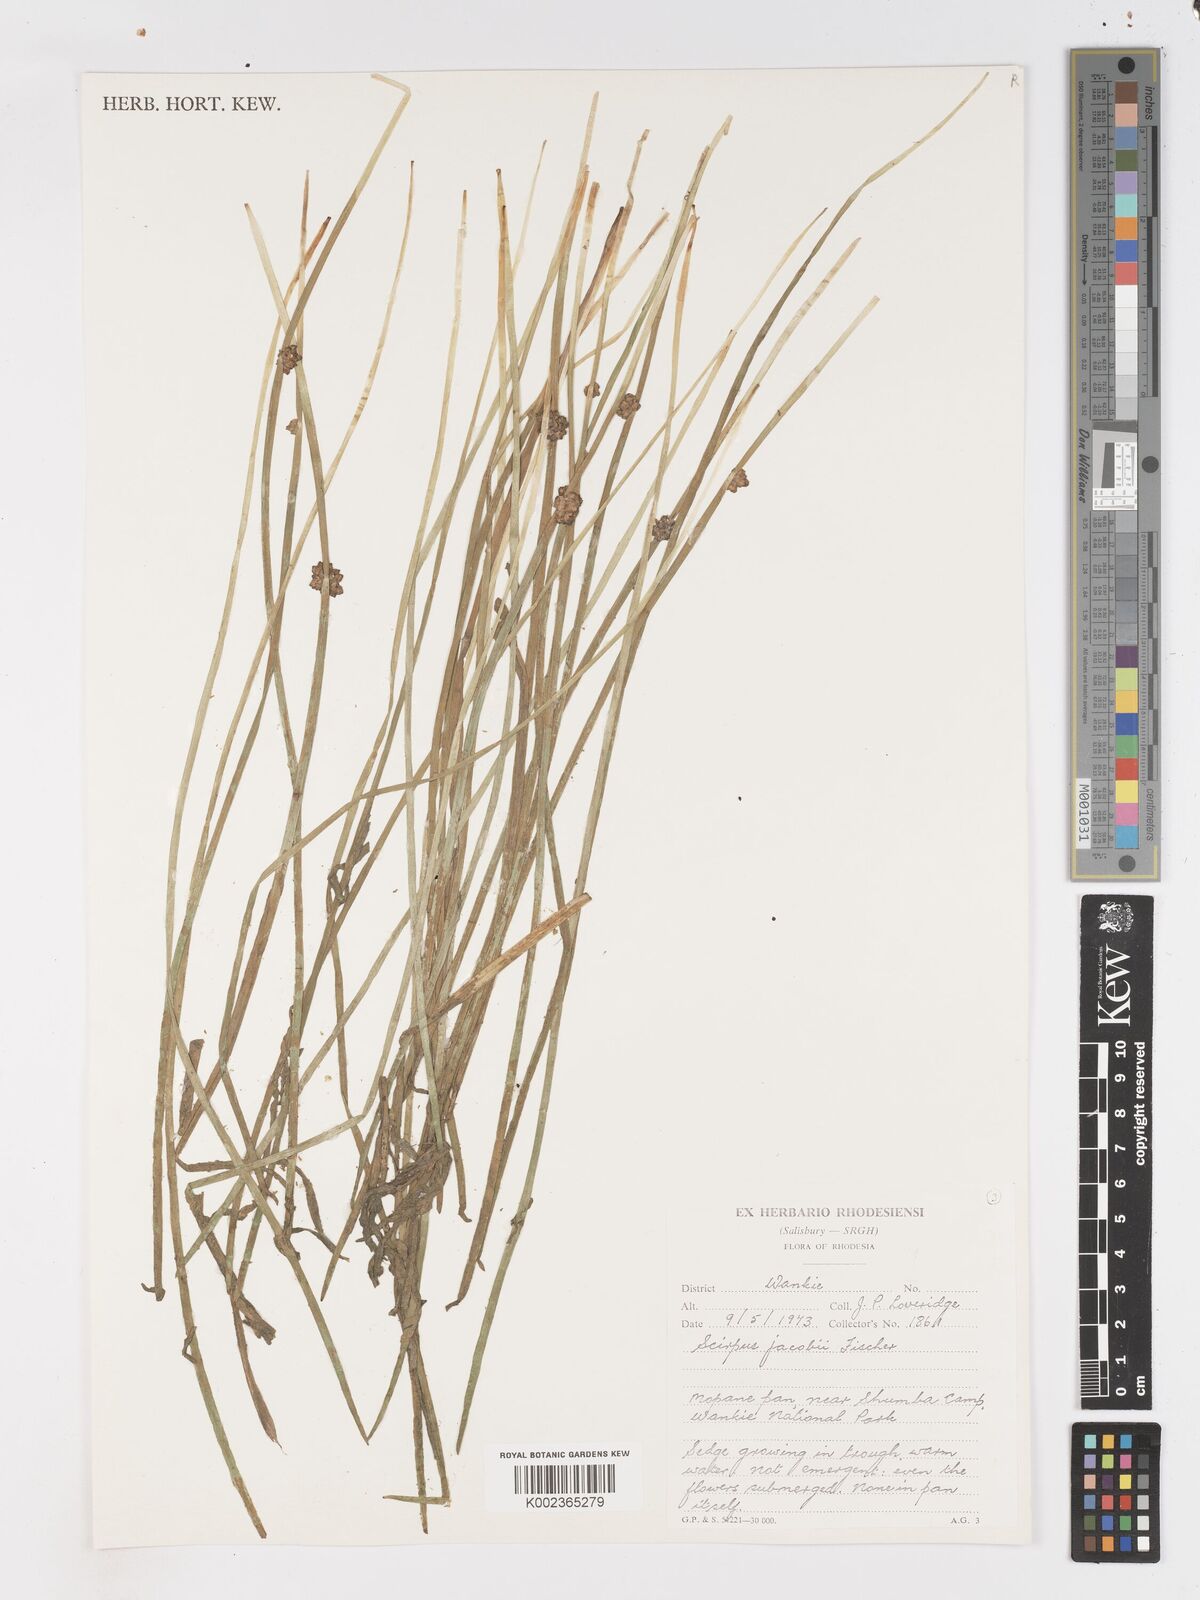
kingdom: Plantae
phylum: Tracheophyta
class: Liliopsida
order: Poales
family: Cyperaceae
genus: Schoenoplectiella
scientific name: Schoenoplectiella senegalensis
